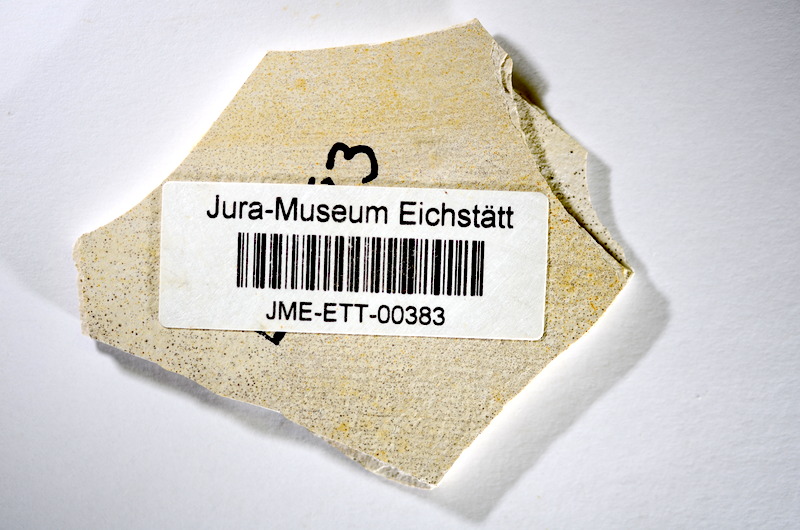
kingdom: Animalia
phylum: Chordata
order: Salmoniformes
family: Orthogonikleithridae
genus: Orthogonikleithrus
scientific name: Orthogonikleithrus hoelli
